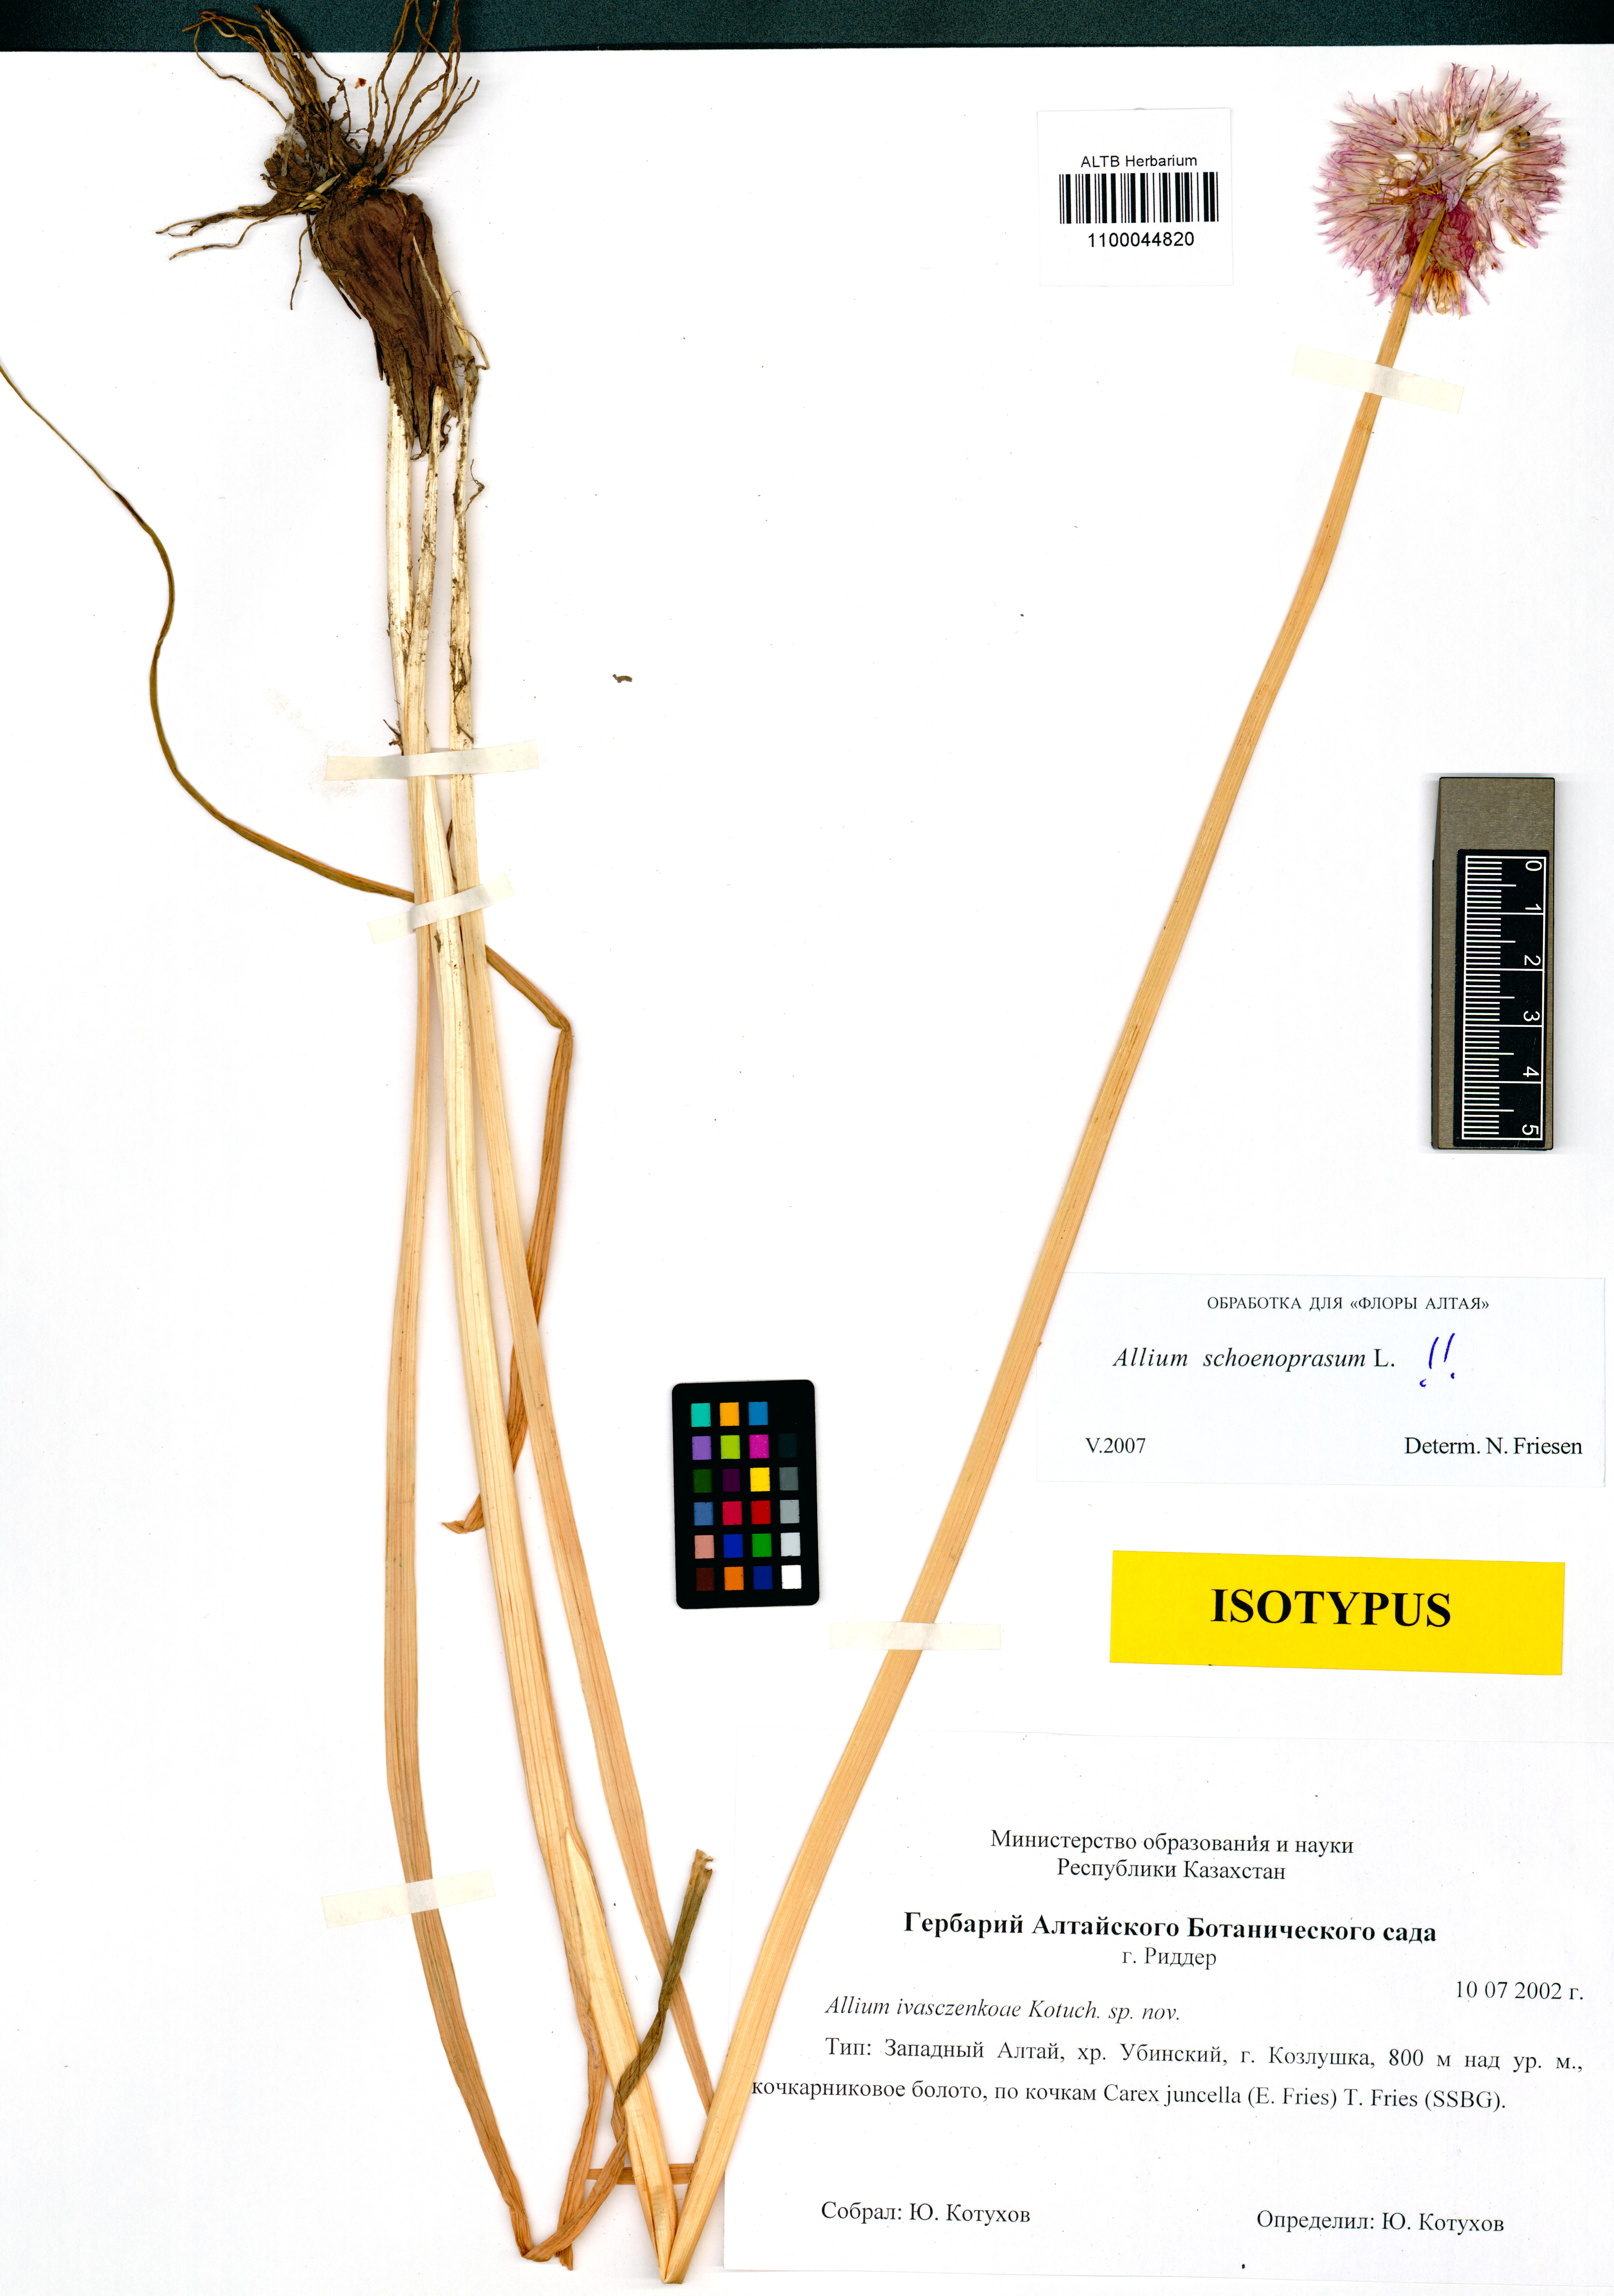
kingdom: Plantae
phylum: Tracheophyta
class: Liliopsida
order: Asparagales
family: Amaryllidaceae
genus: Allium
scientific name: Allium schoenoprasum
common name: Chives
